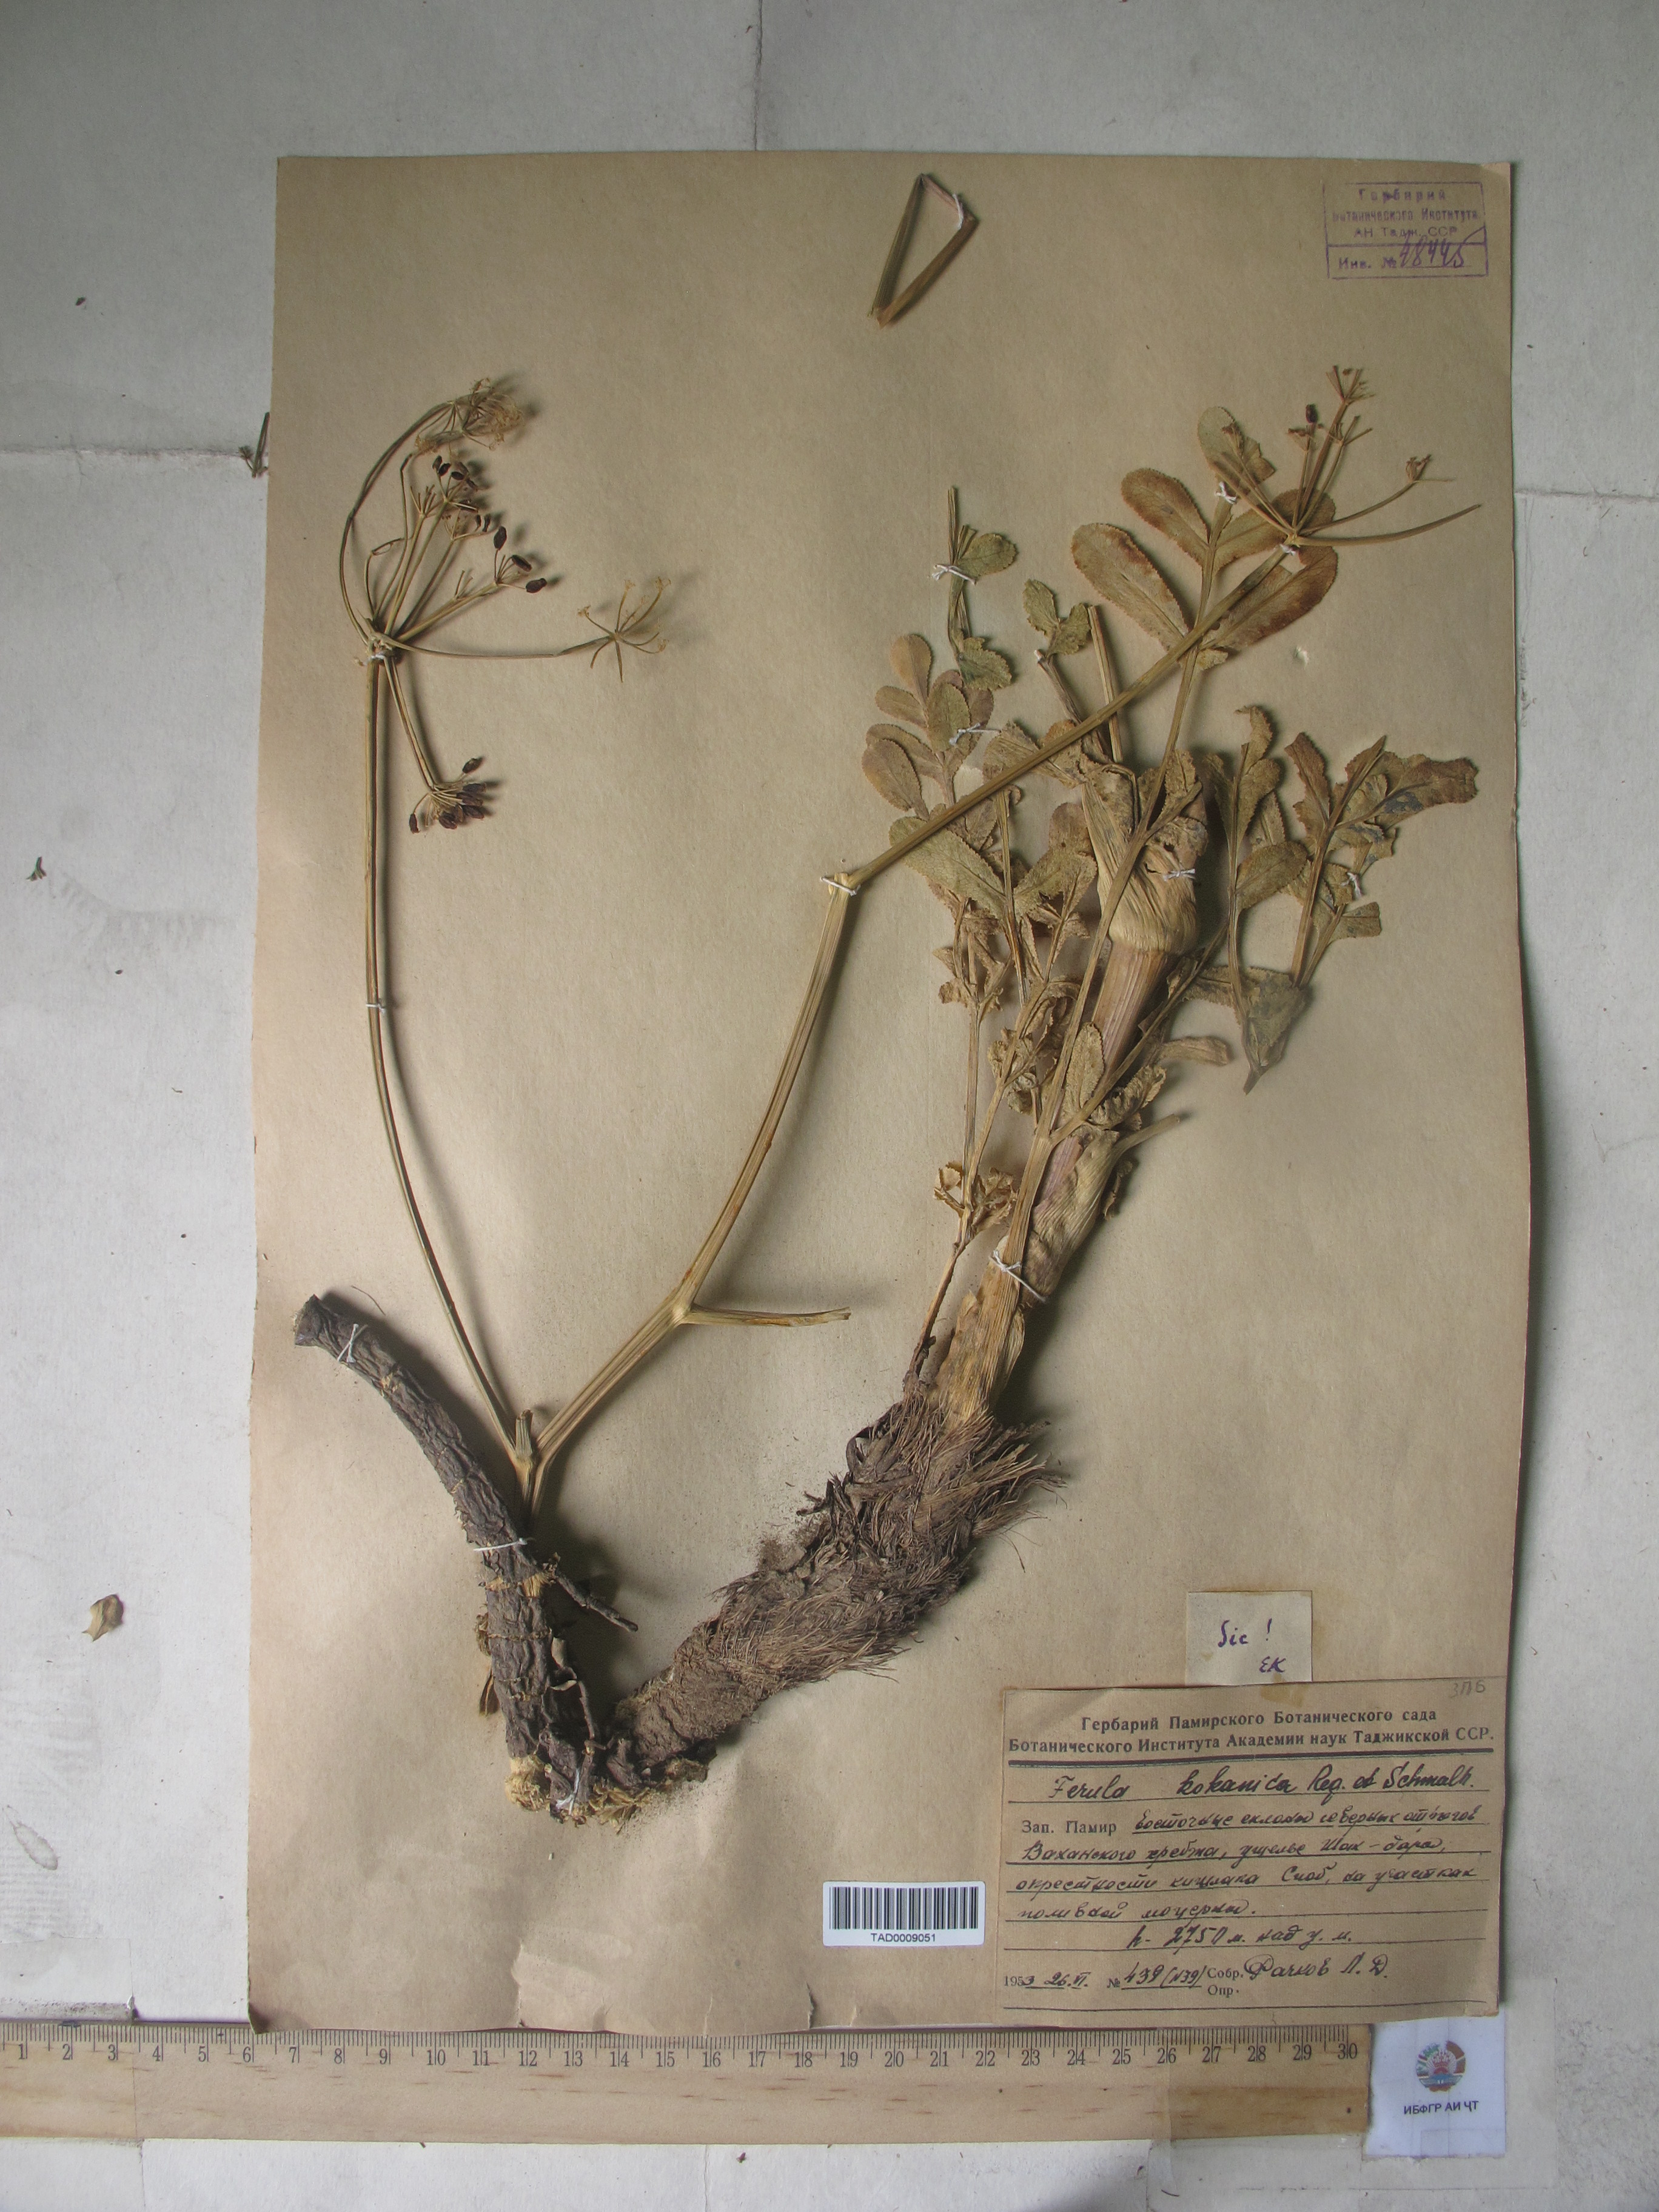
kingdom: Plantae
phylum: Tracheophyta
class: Magnoliopsida
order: Apiales
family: Apiaceae
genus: Ferula
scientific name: Ferula kokanica
